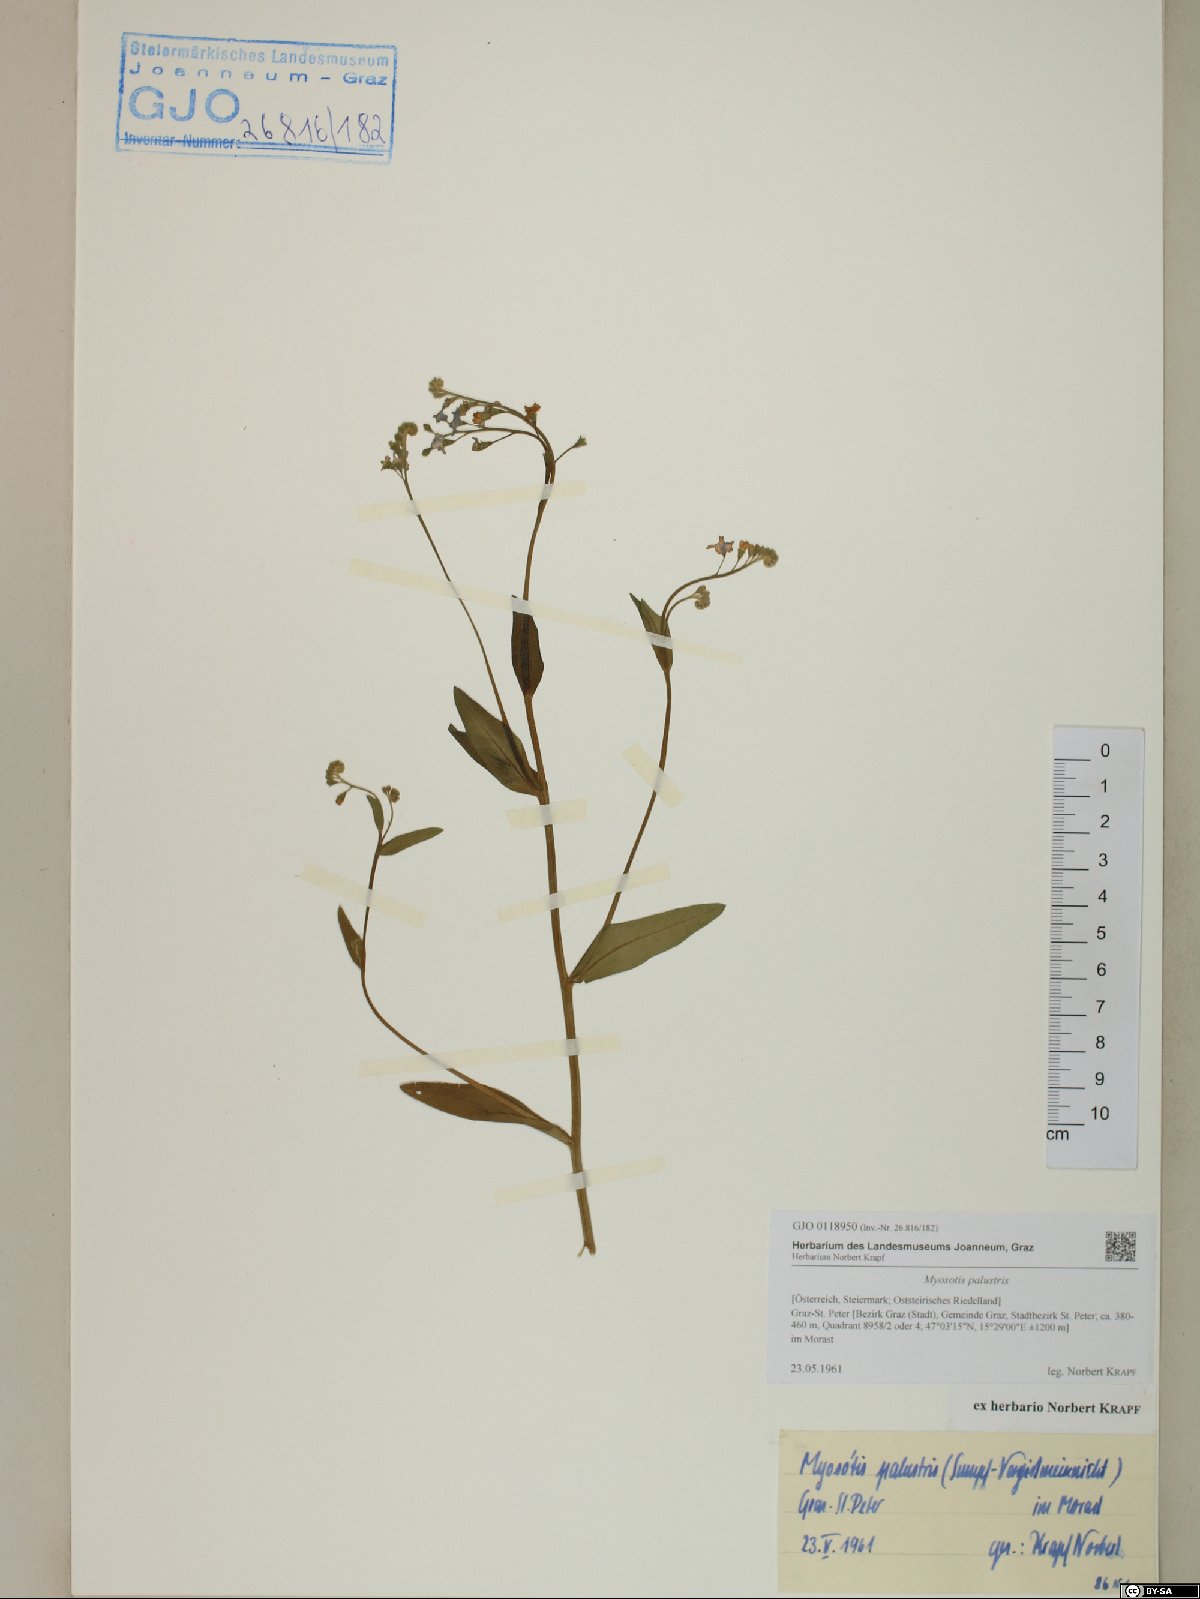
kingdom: Plantae
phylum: Tracheophyta
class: Magnoliopsida
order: Boraginales
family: Boraginaceae
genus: Myosotis
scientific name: Myosotis scorpioides
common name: Water forget-me-not
